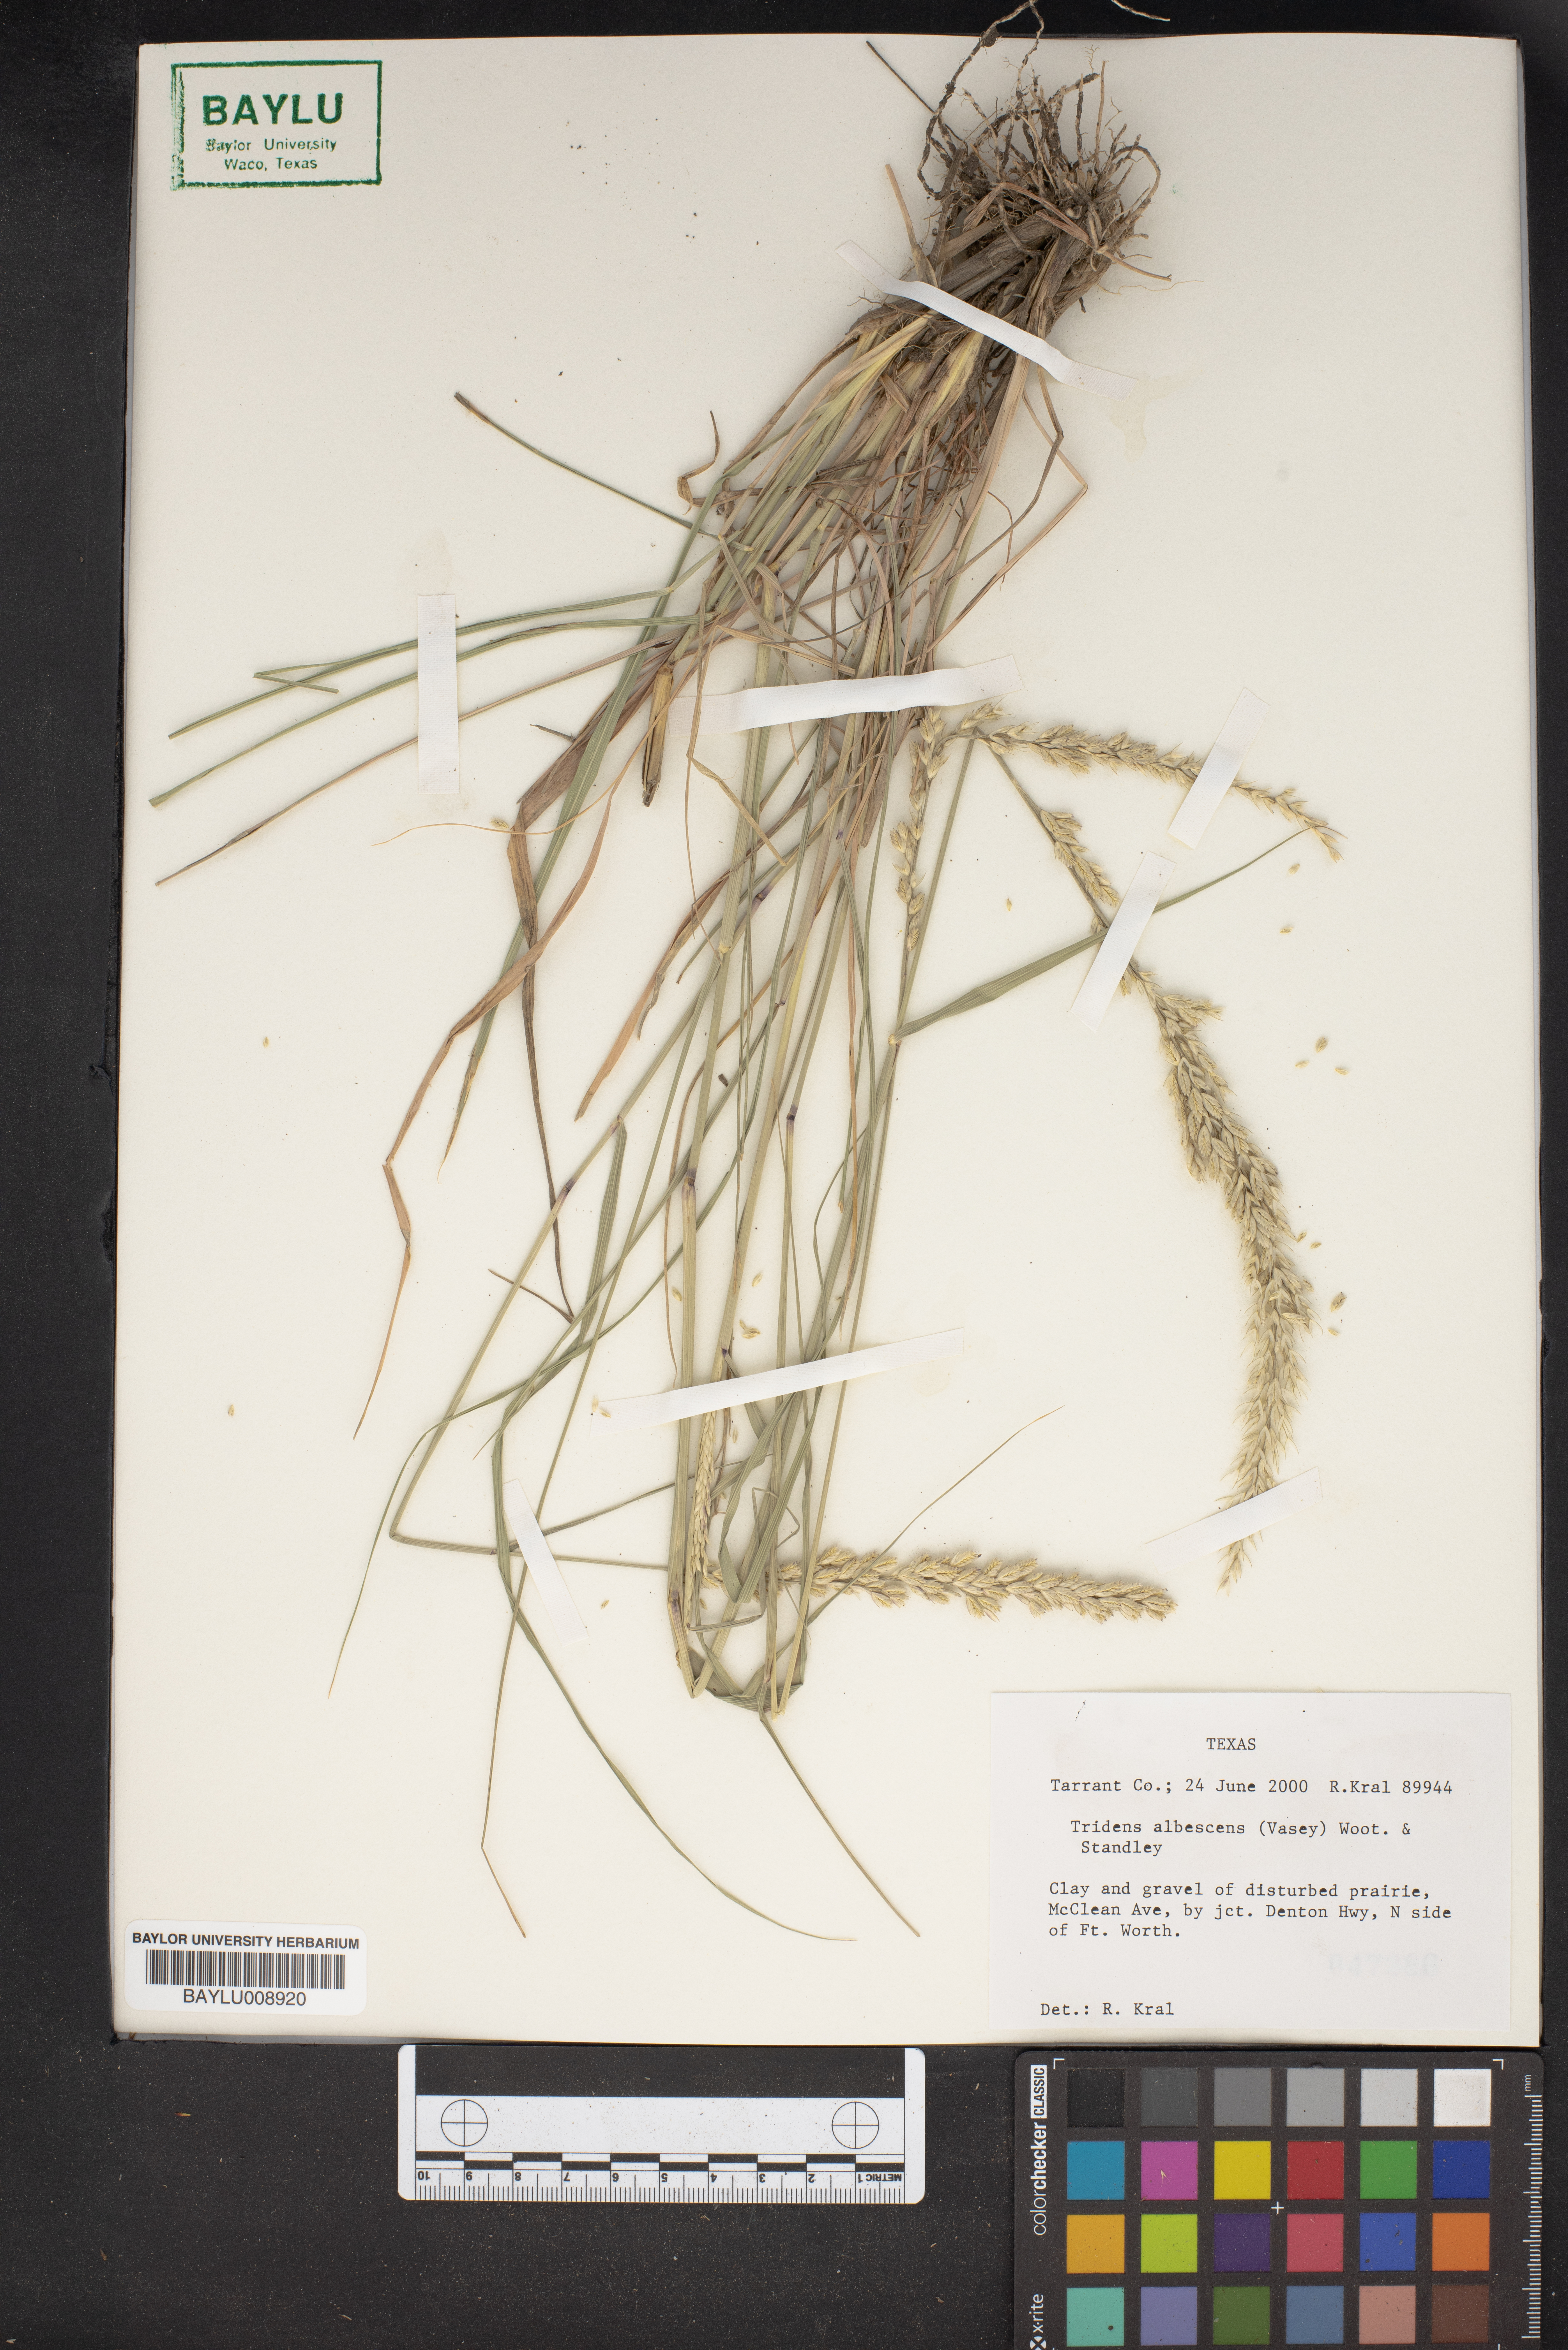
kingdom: Plantae
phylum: Tracheophyta
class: Liliopsida
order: Poales
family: Poaceae
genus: Tridens
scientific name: Tridens albescens
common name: White tridens
